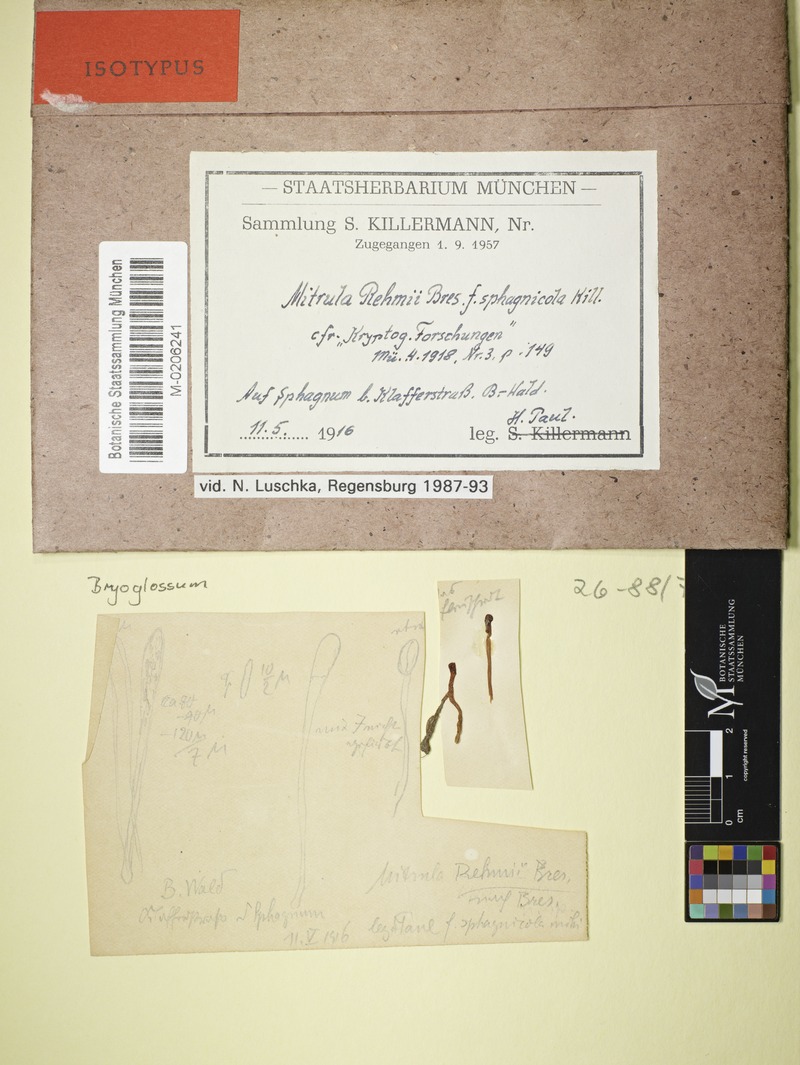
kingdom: Fungi
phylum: Ascomycota
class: Leotiomycetes
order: Helotiales
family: Bryoglossaceae
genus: Bryoglossum
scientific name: Bryoglossum rehmii
